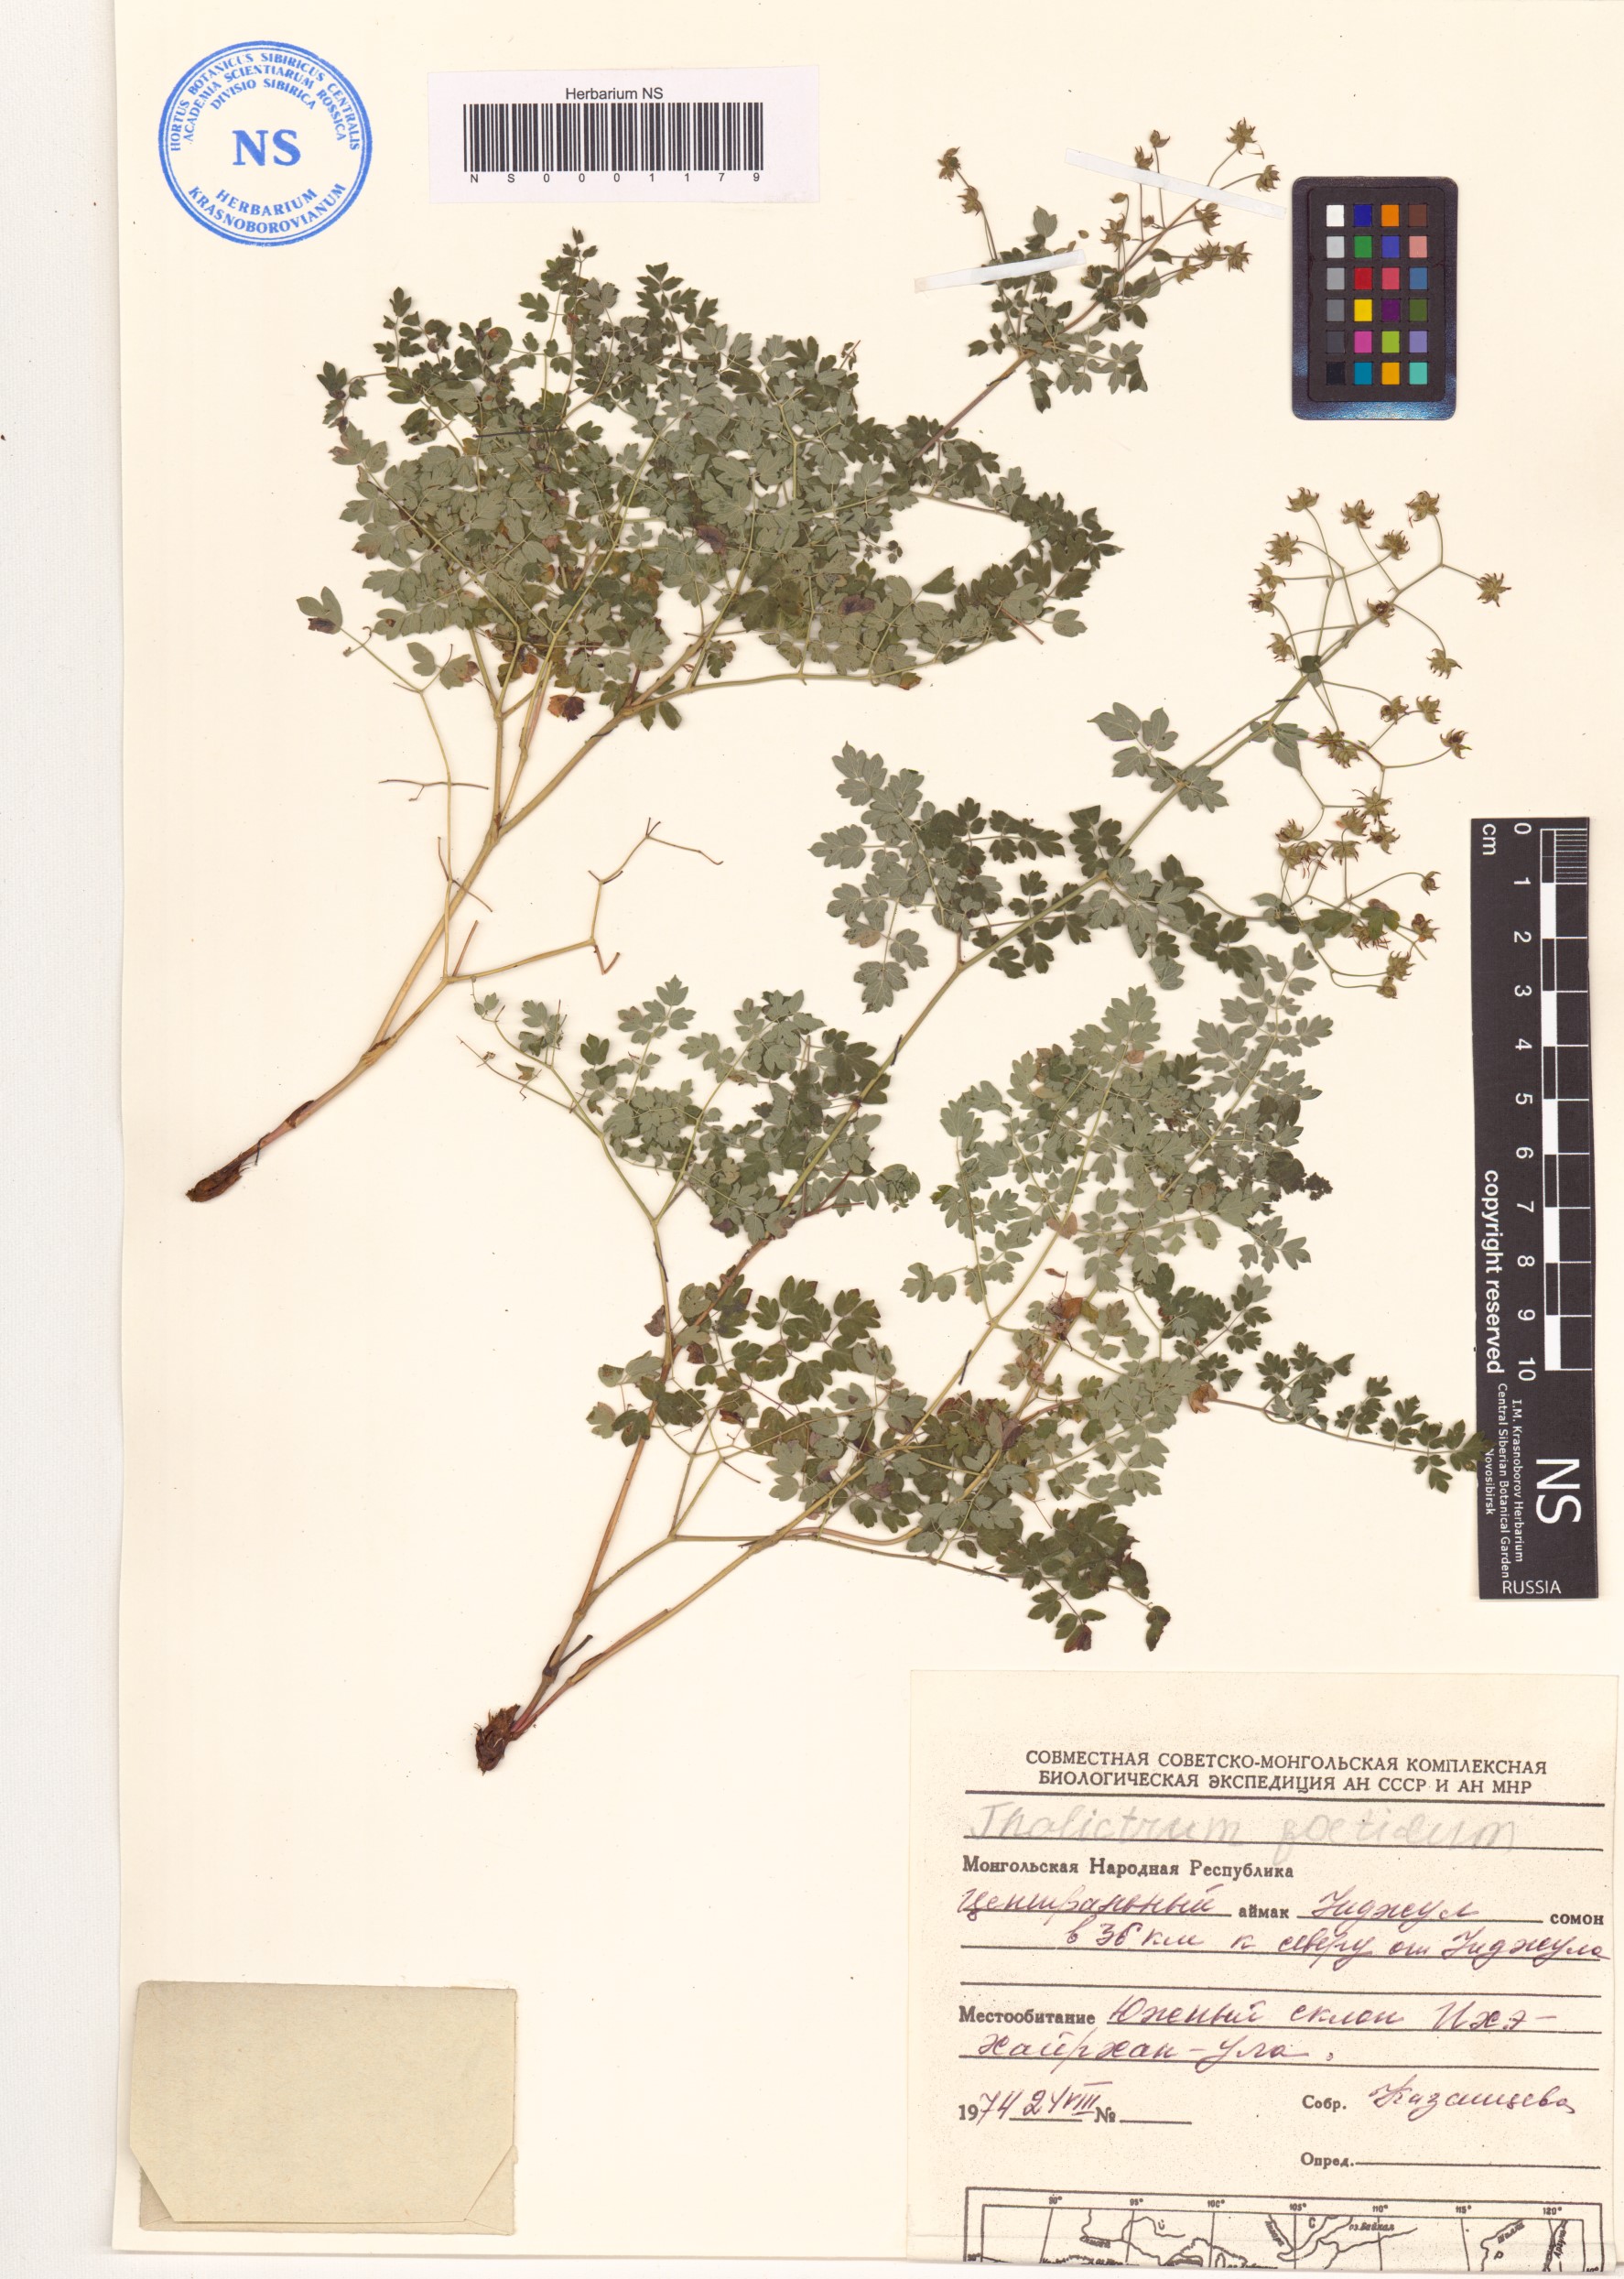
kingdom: Plantae
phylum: Tracheophyta
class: Magnoliopsida
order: Ranunculales
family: Ranunculaceae
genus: Thalictrum
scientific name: Thalictrum foetidum
